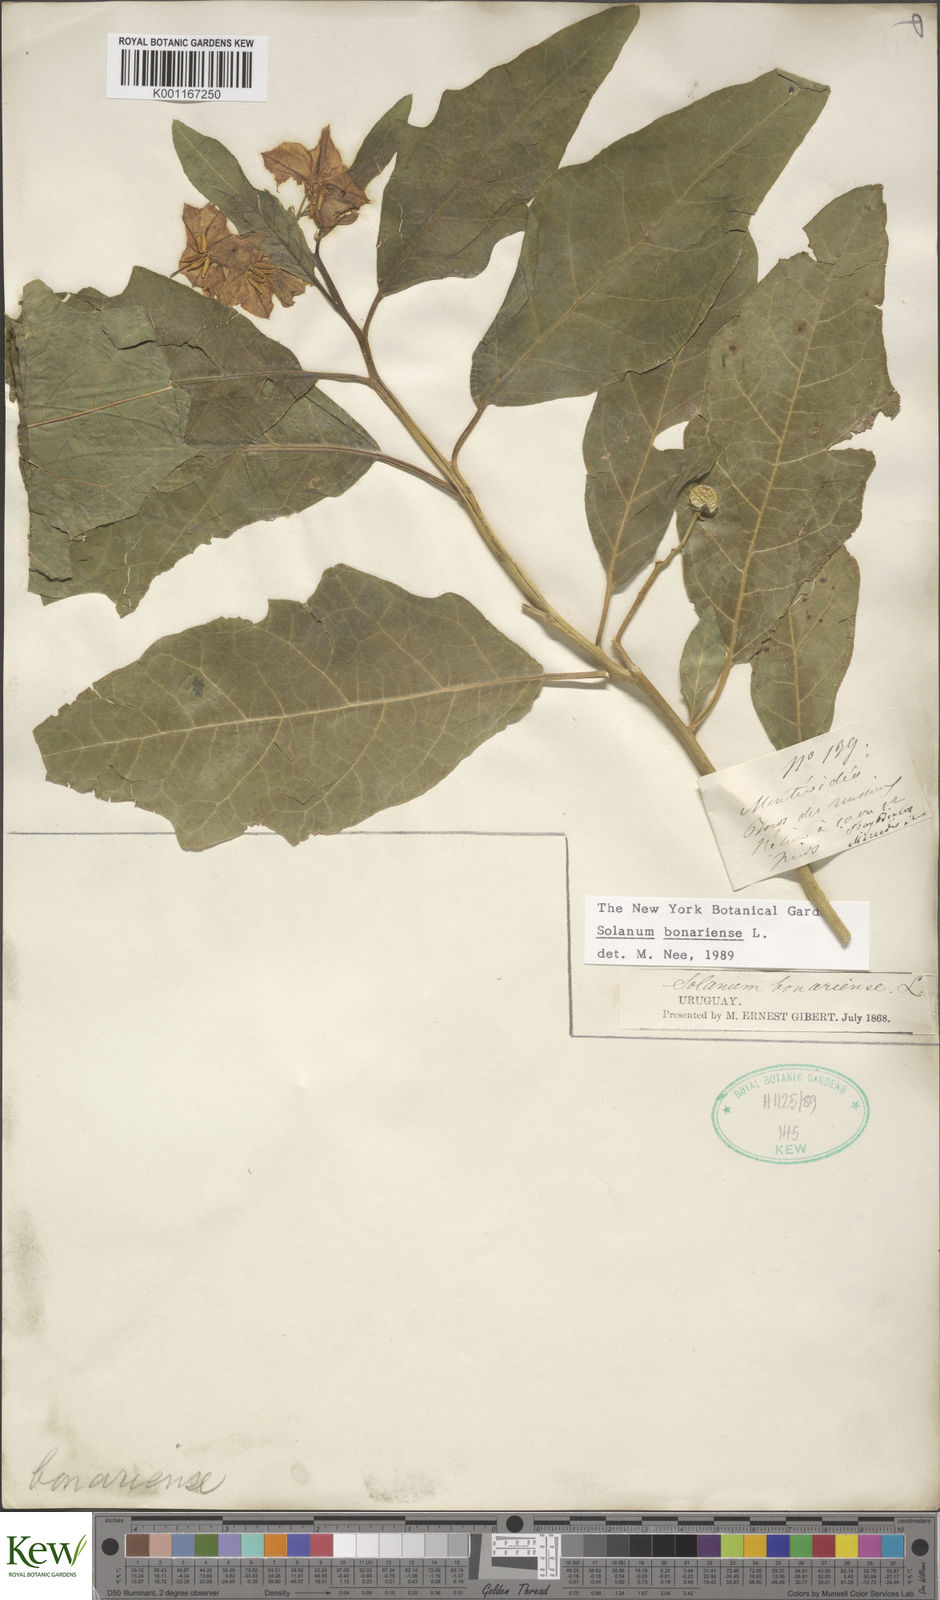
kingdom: Plantae
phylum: Tracheophyta
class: Magnoliopsida
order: Solanales
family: Solanaceae
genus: Solanum
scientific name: Solanum bonariense
